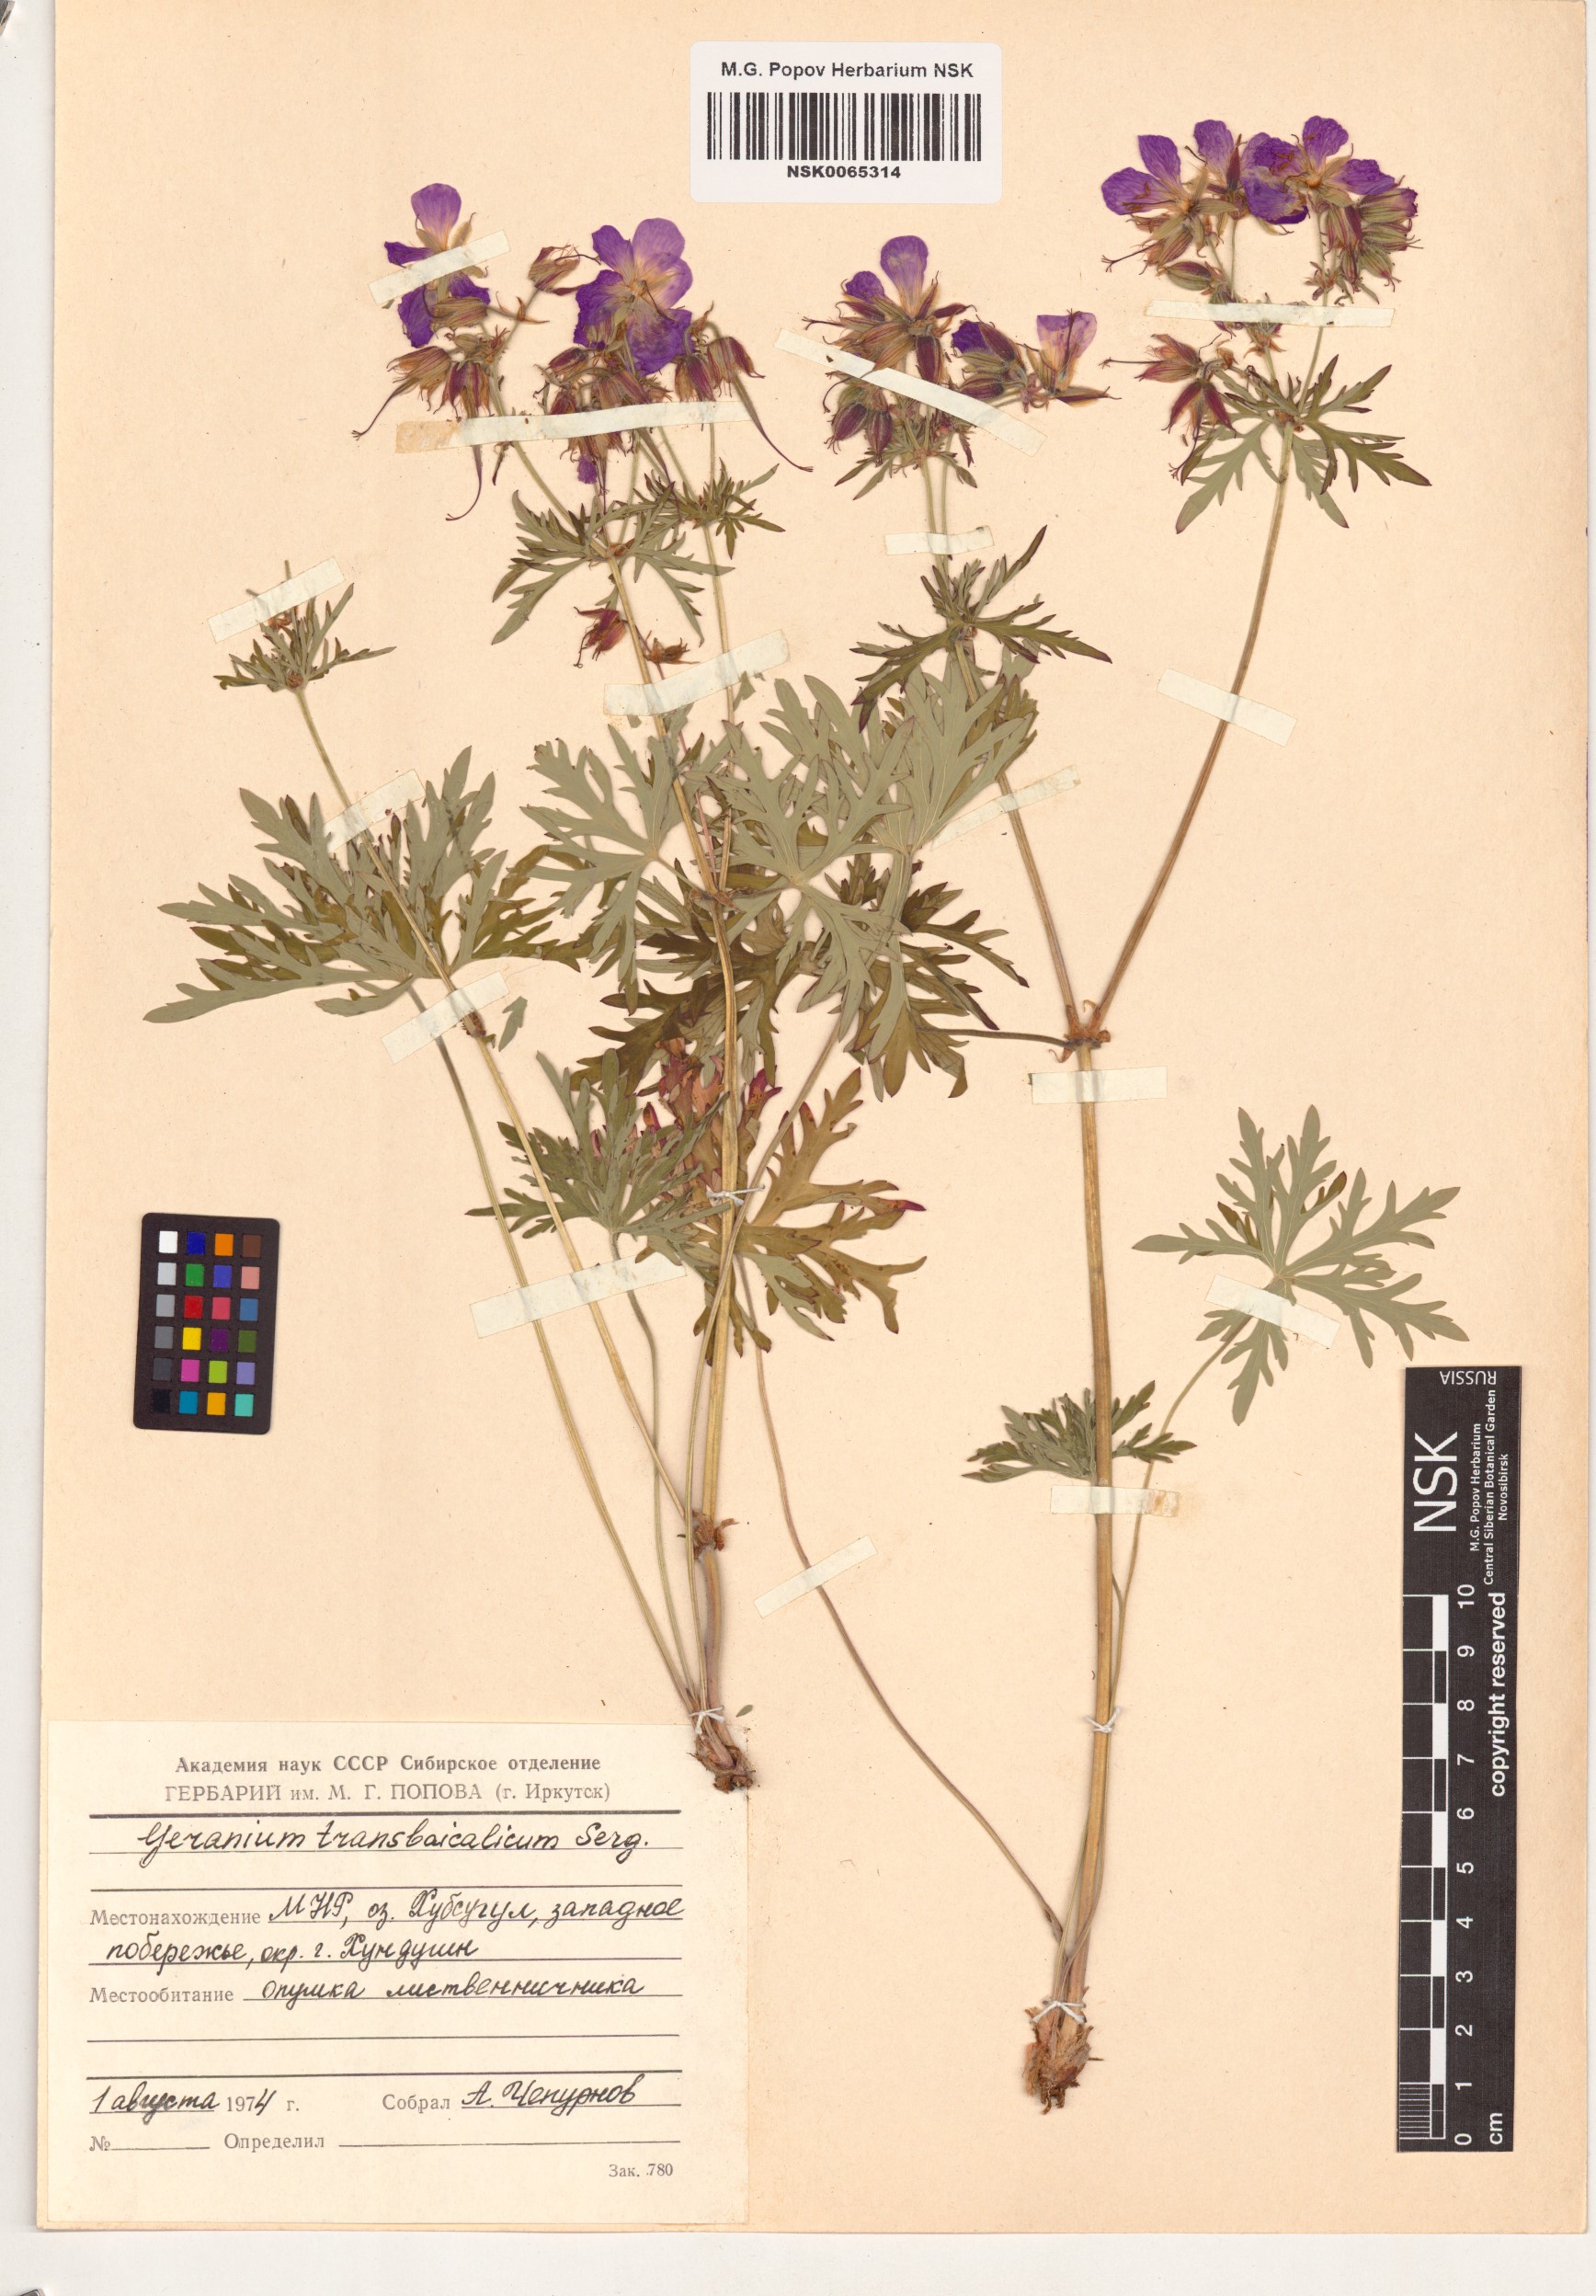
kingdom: Plantae
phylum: Tracheophyta
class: Magnoliopsida
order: Geraniales
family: Geraniaceae
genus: Geranium
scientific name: Geranium pratense
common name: Meadow crane's-bill
